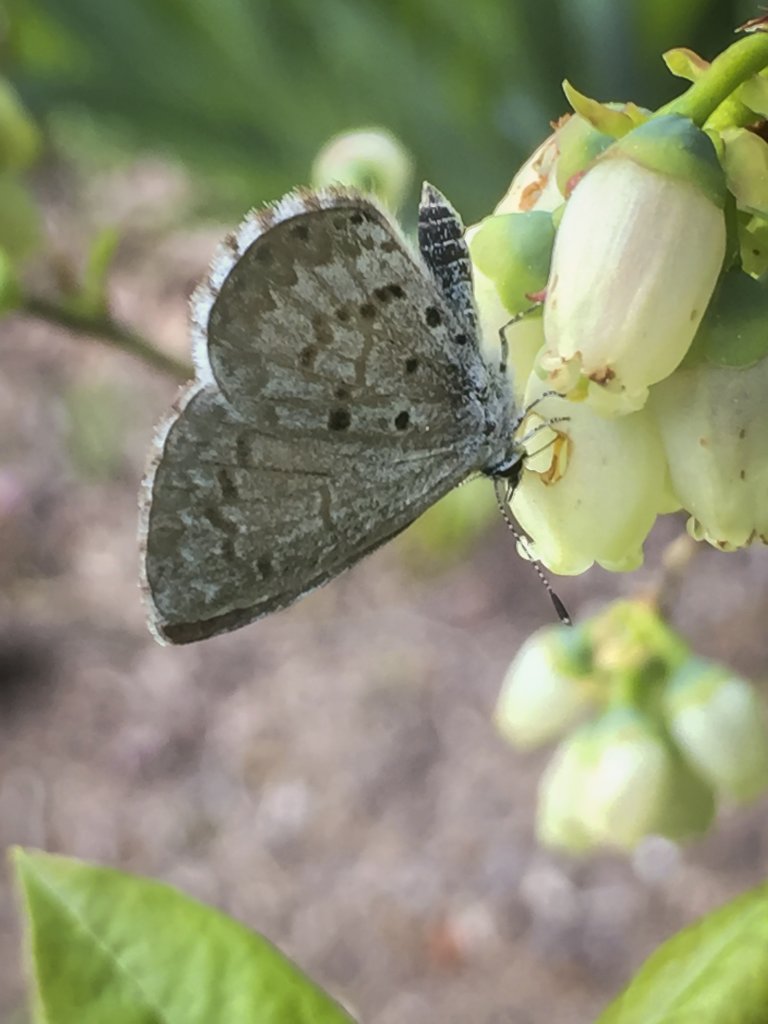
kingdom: Animalia
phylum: Arthropoda
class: Insecta
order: Lepidoptera
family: Lycaenidae
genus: Celastrina
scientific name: Celastrina lucia
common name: Northern Spring Azure
